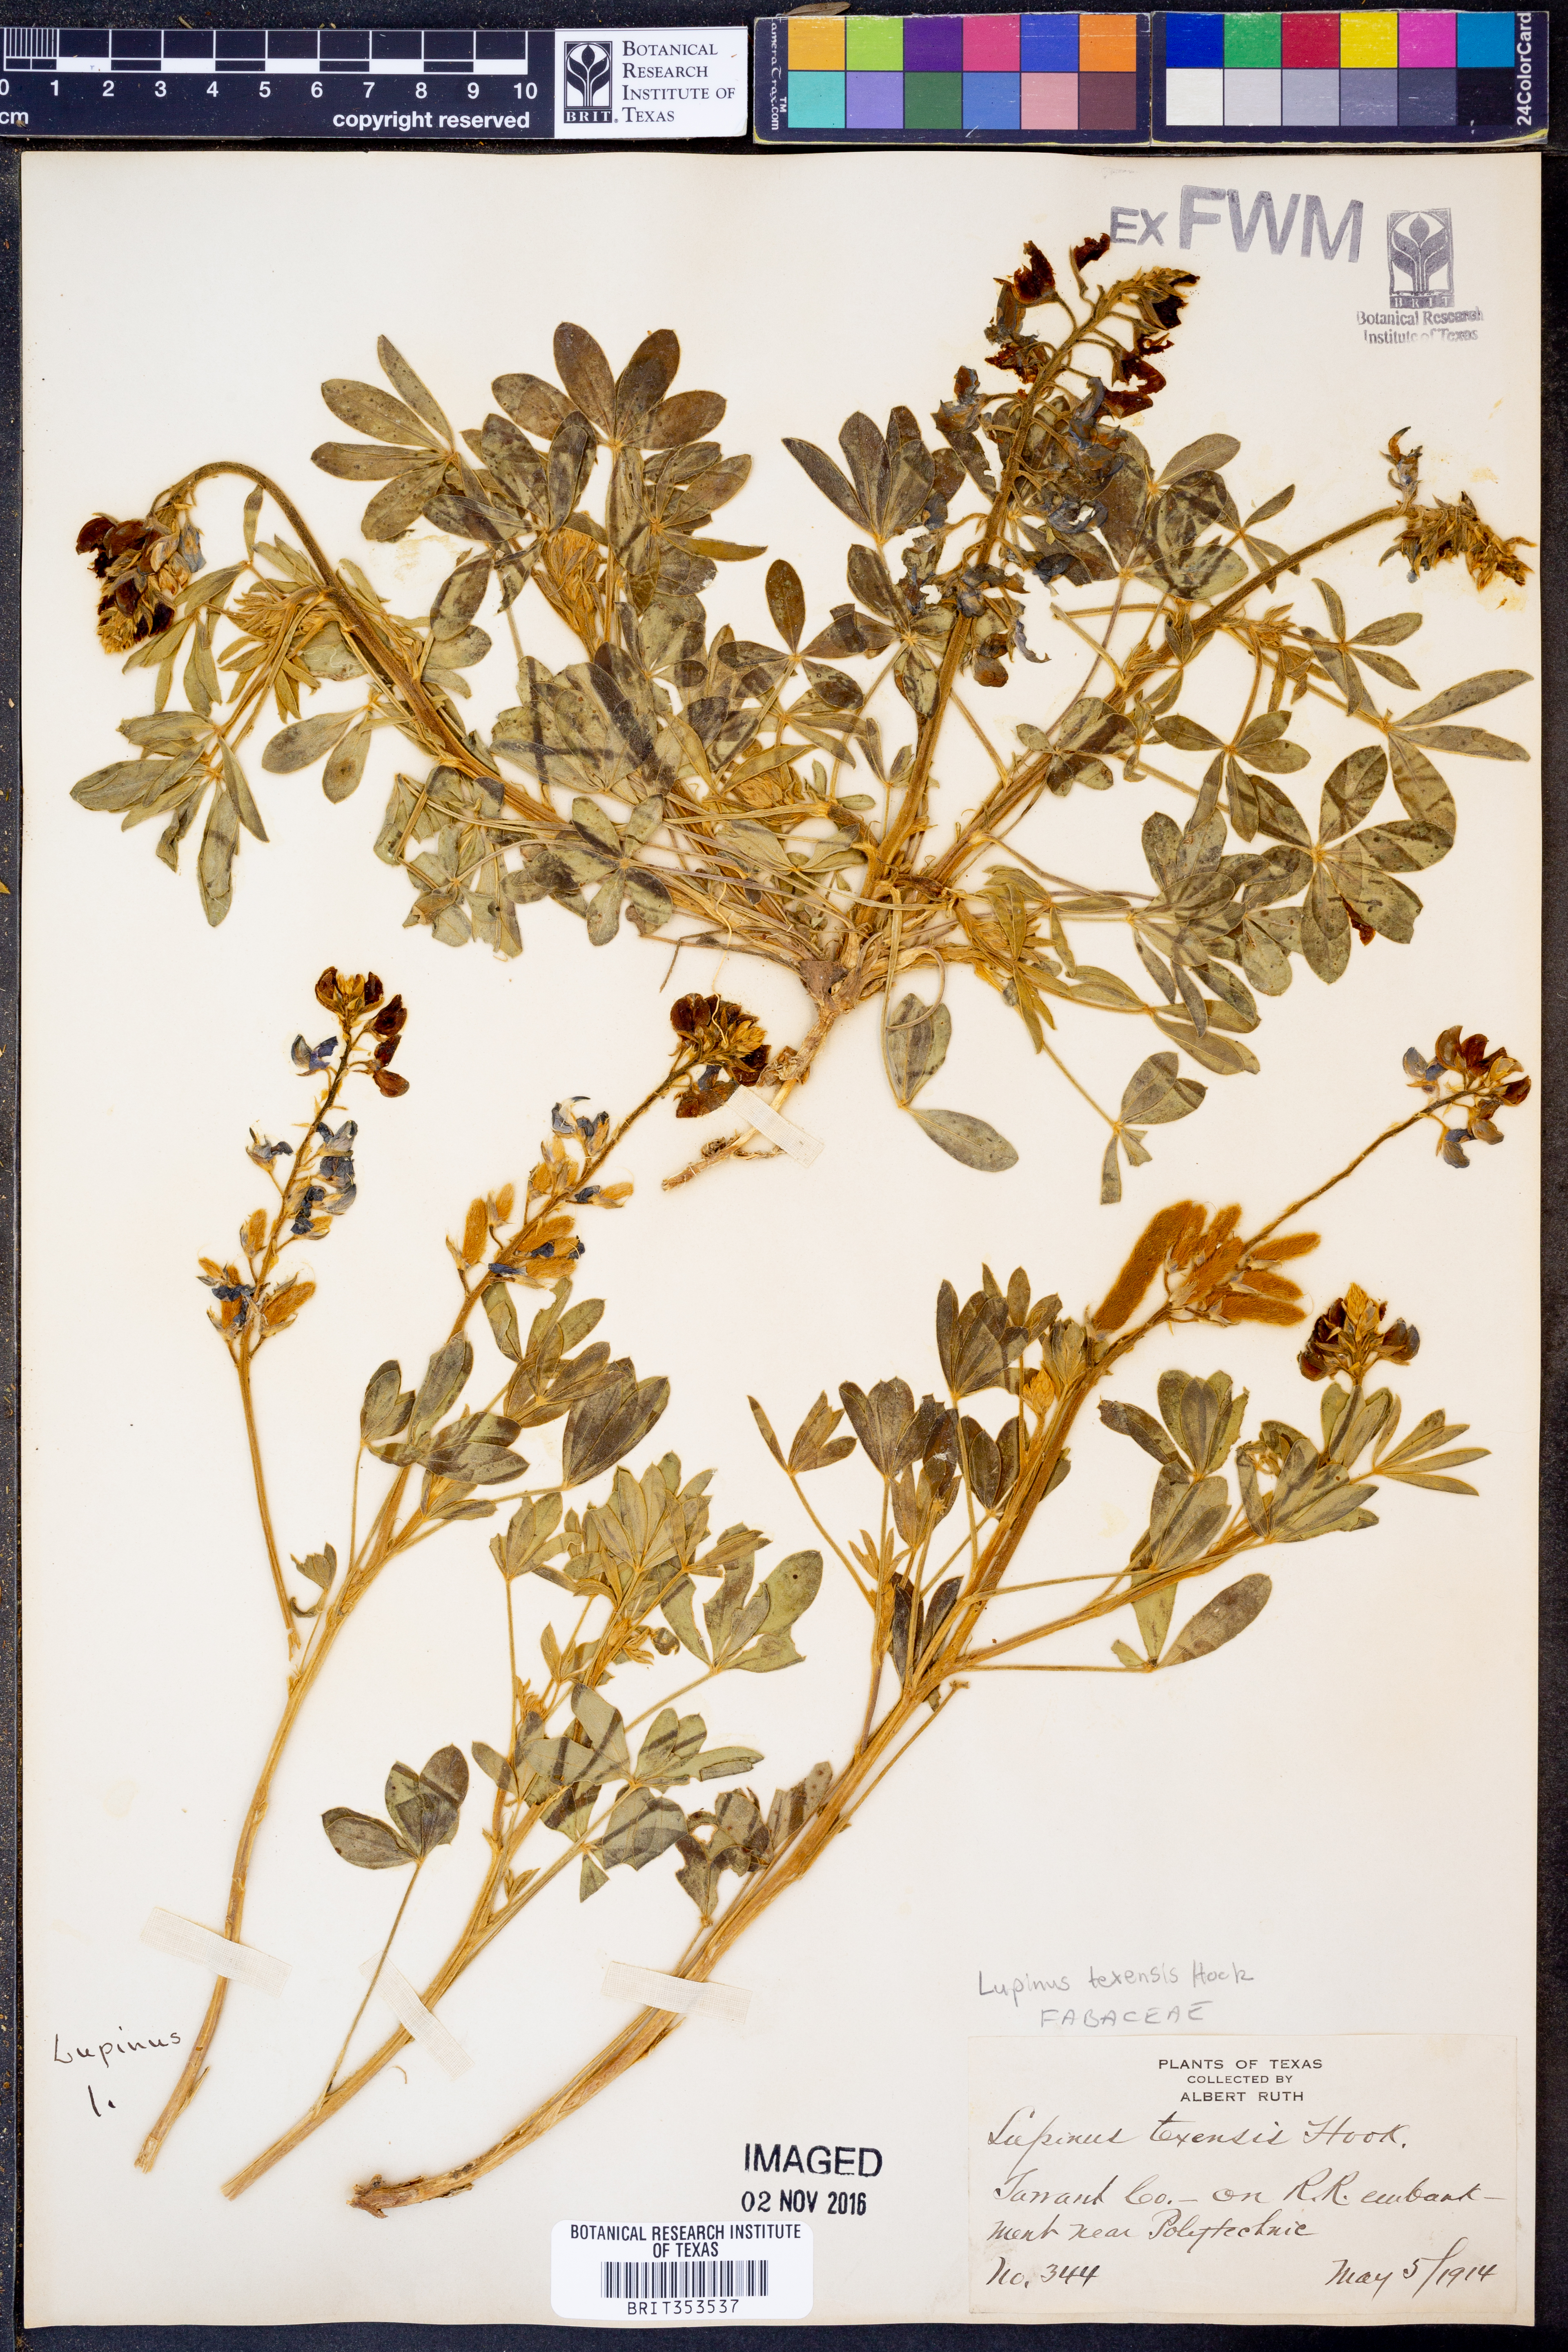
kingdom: Plantae
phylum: Tracheophyta
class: Magnoliopsida
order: Fabales
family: Fabaceae
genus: Lupinus
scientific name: Lupinus texensis
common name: Texas bluebonnet
